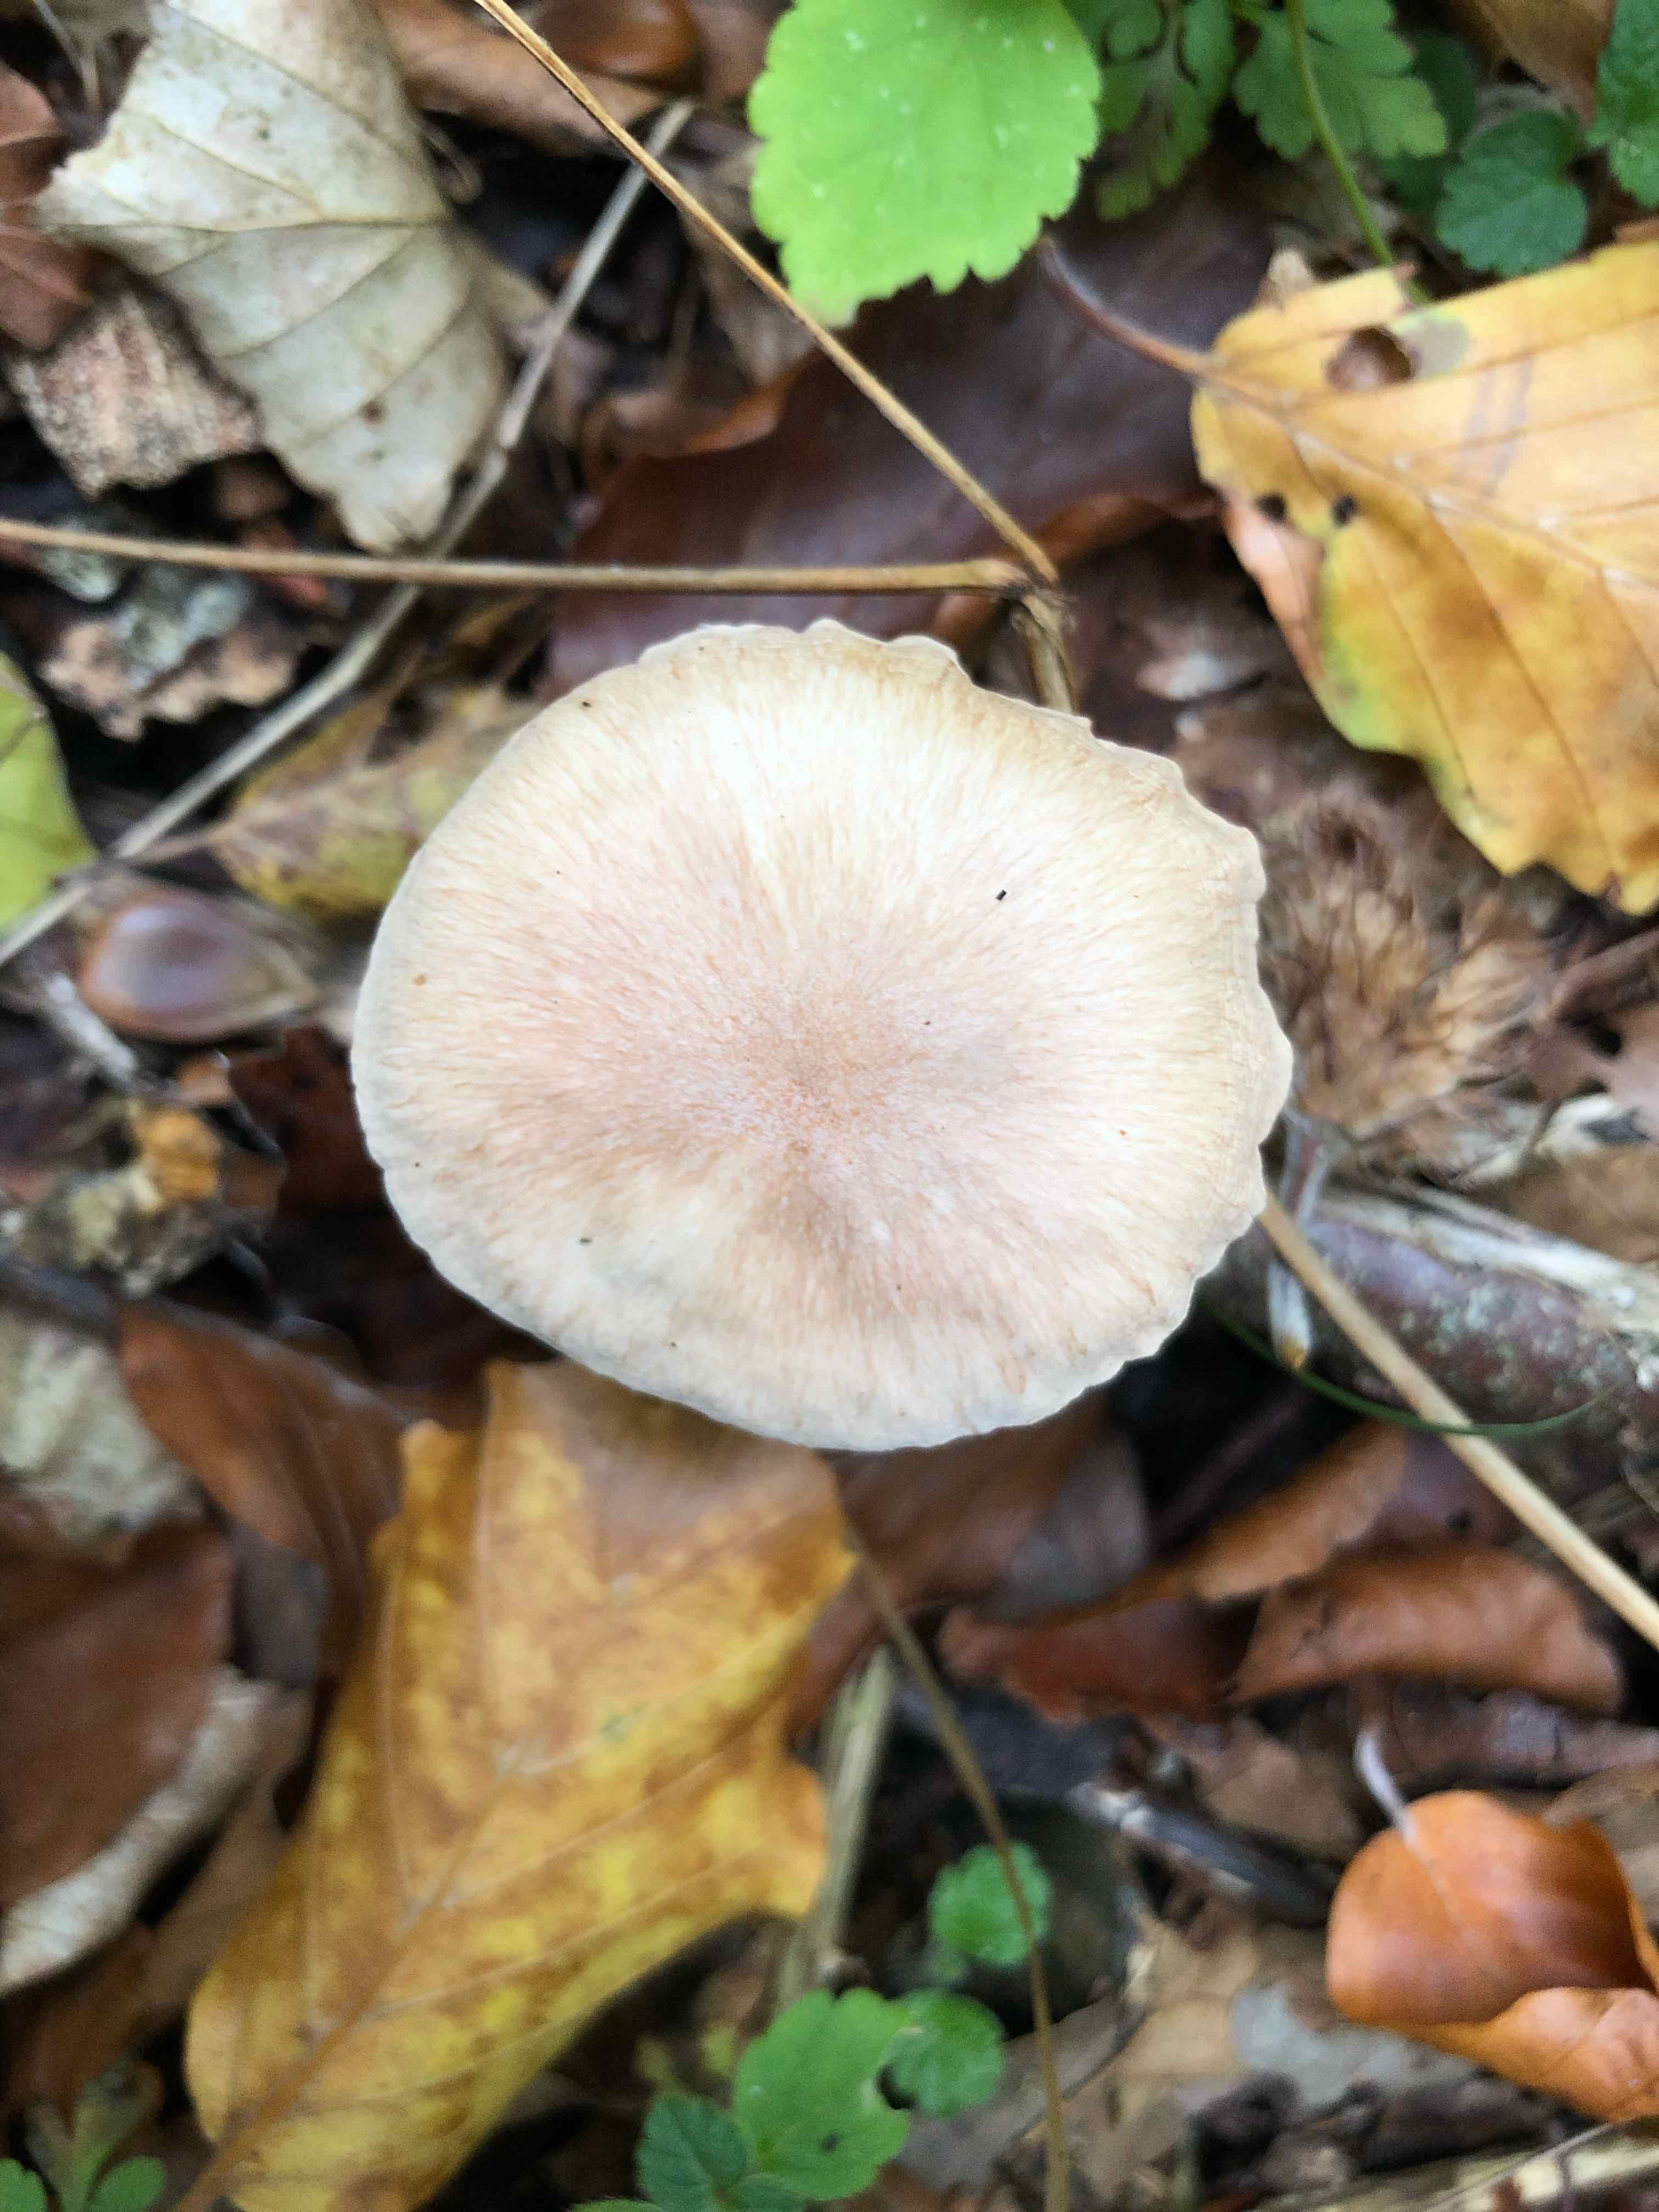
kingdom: Fungi
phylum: Basidiomycota
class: Agaricomycetes
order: Agaricales
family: Omphalotaceae
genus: Collybiopsis
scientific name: Collybiopsis peronata
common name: bestøvlet fladhat
